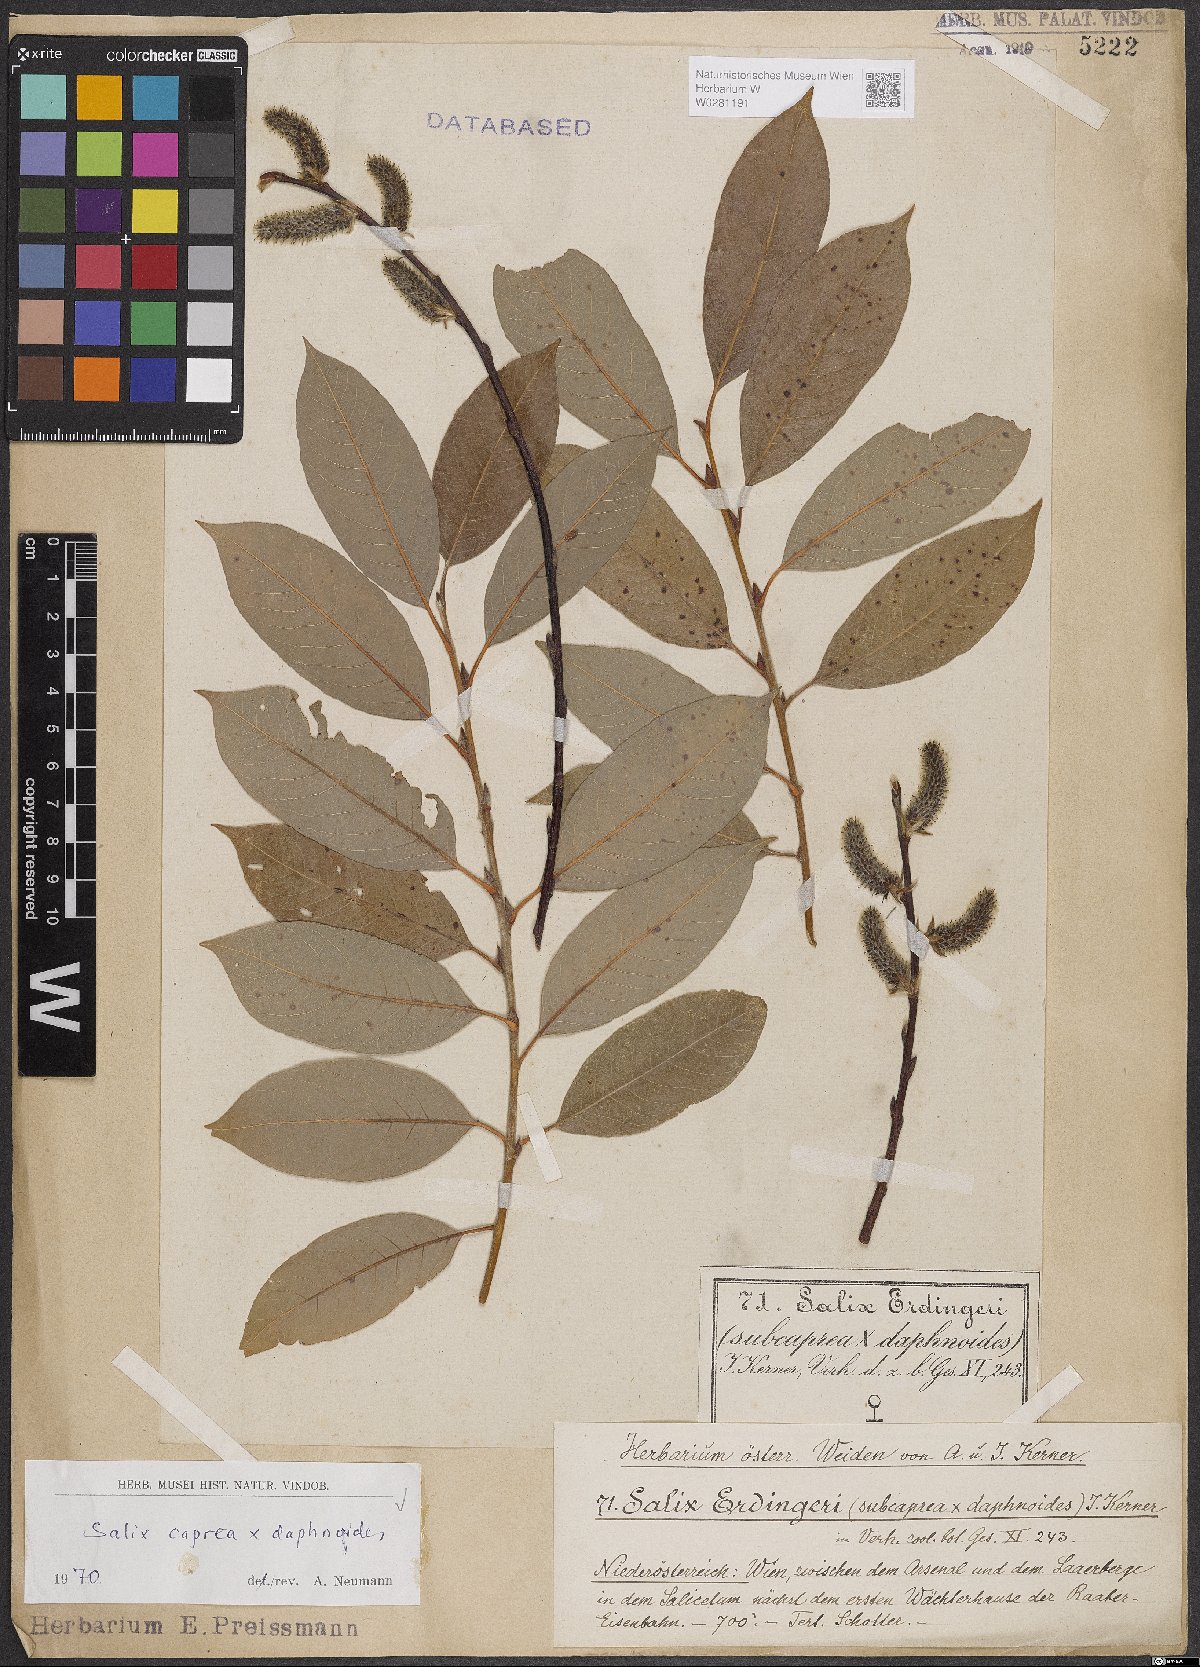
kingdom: Plantae
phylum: Tracheophyta
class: Magnoliopsida
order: Malpighiales
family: Salicaceae
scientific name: Salicaceae
